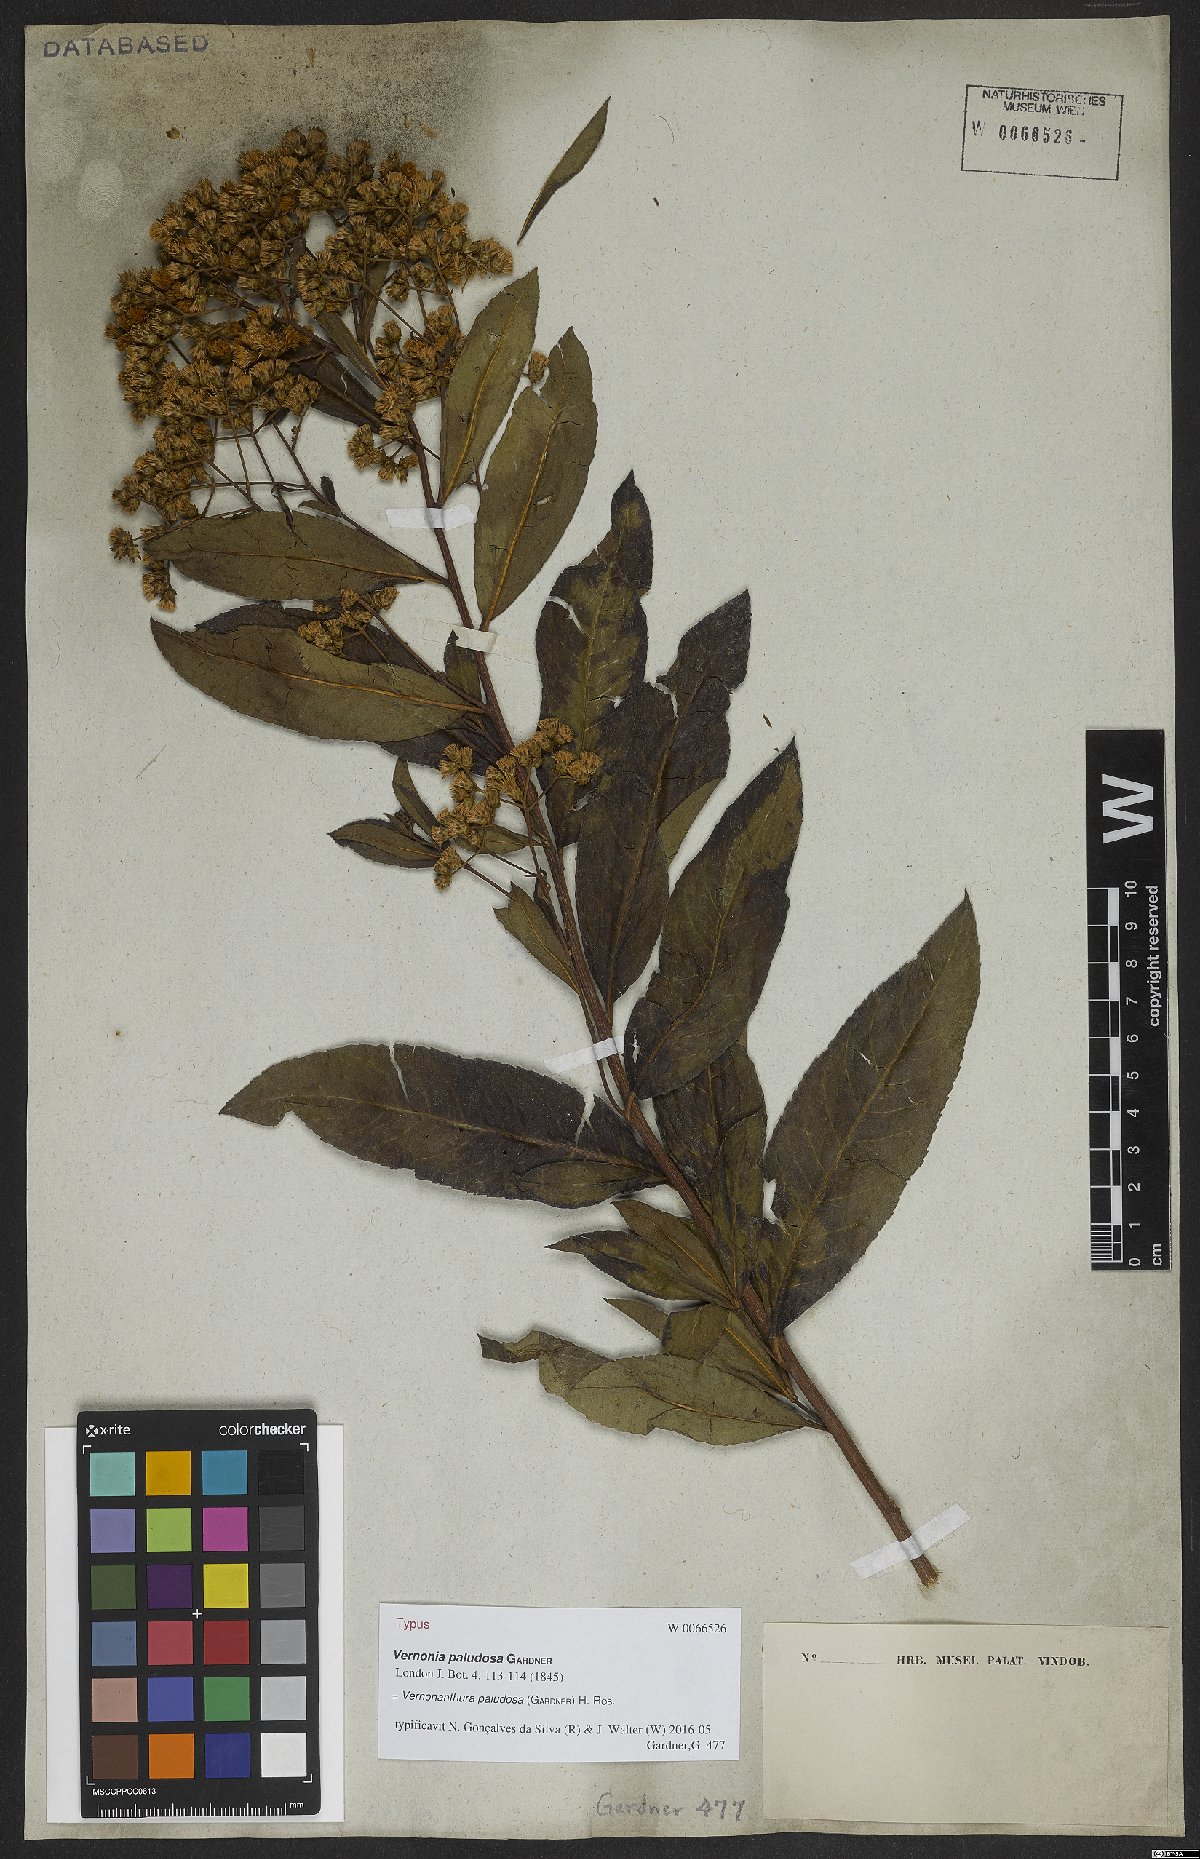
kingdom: Plantae
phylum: Tracheophyta
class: Magnoliopsida
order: Asterales
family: Asteraceae
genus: Vernonanthura
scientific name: Vernonanthura paludosa
